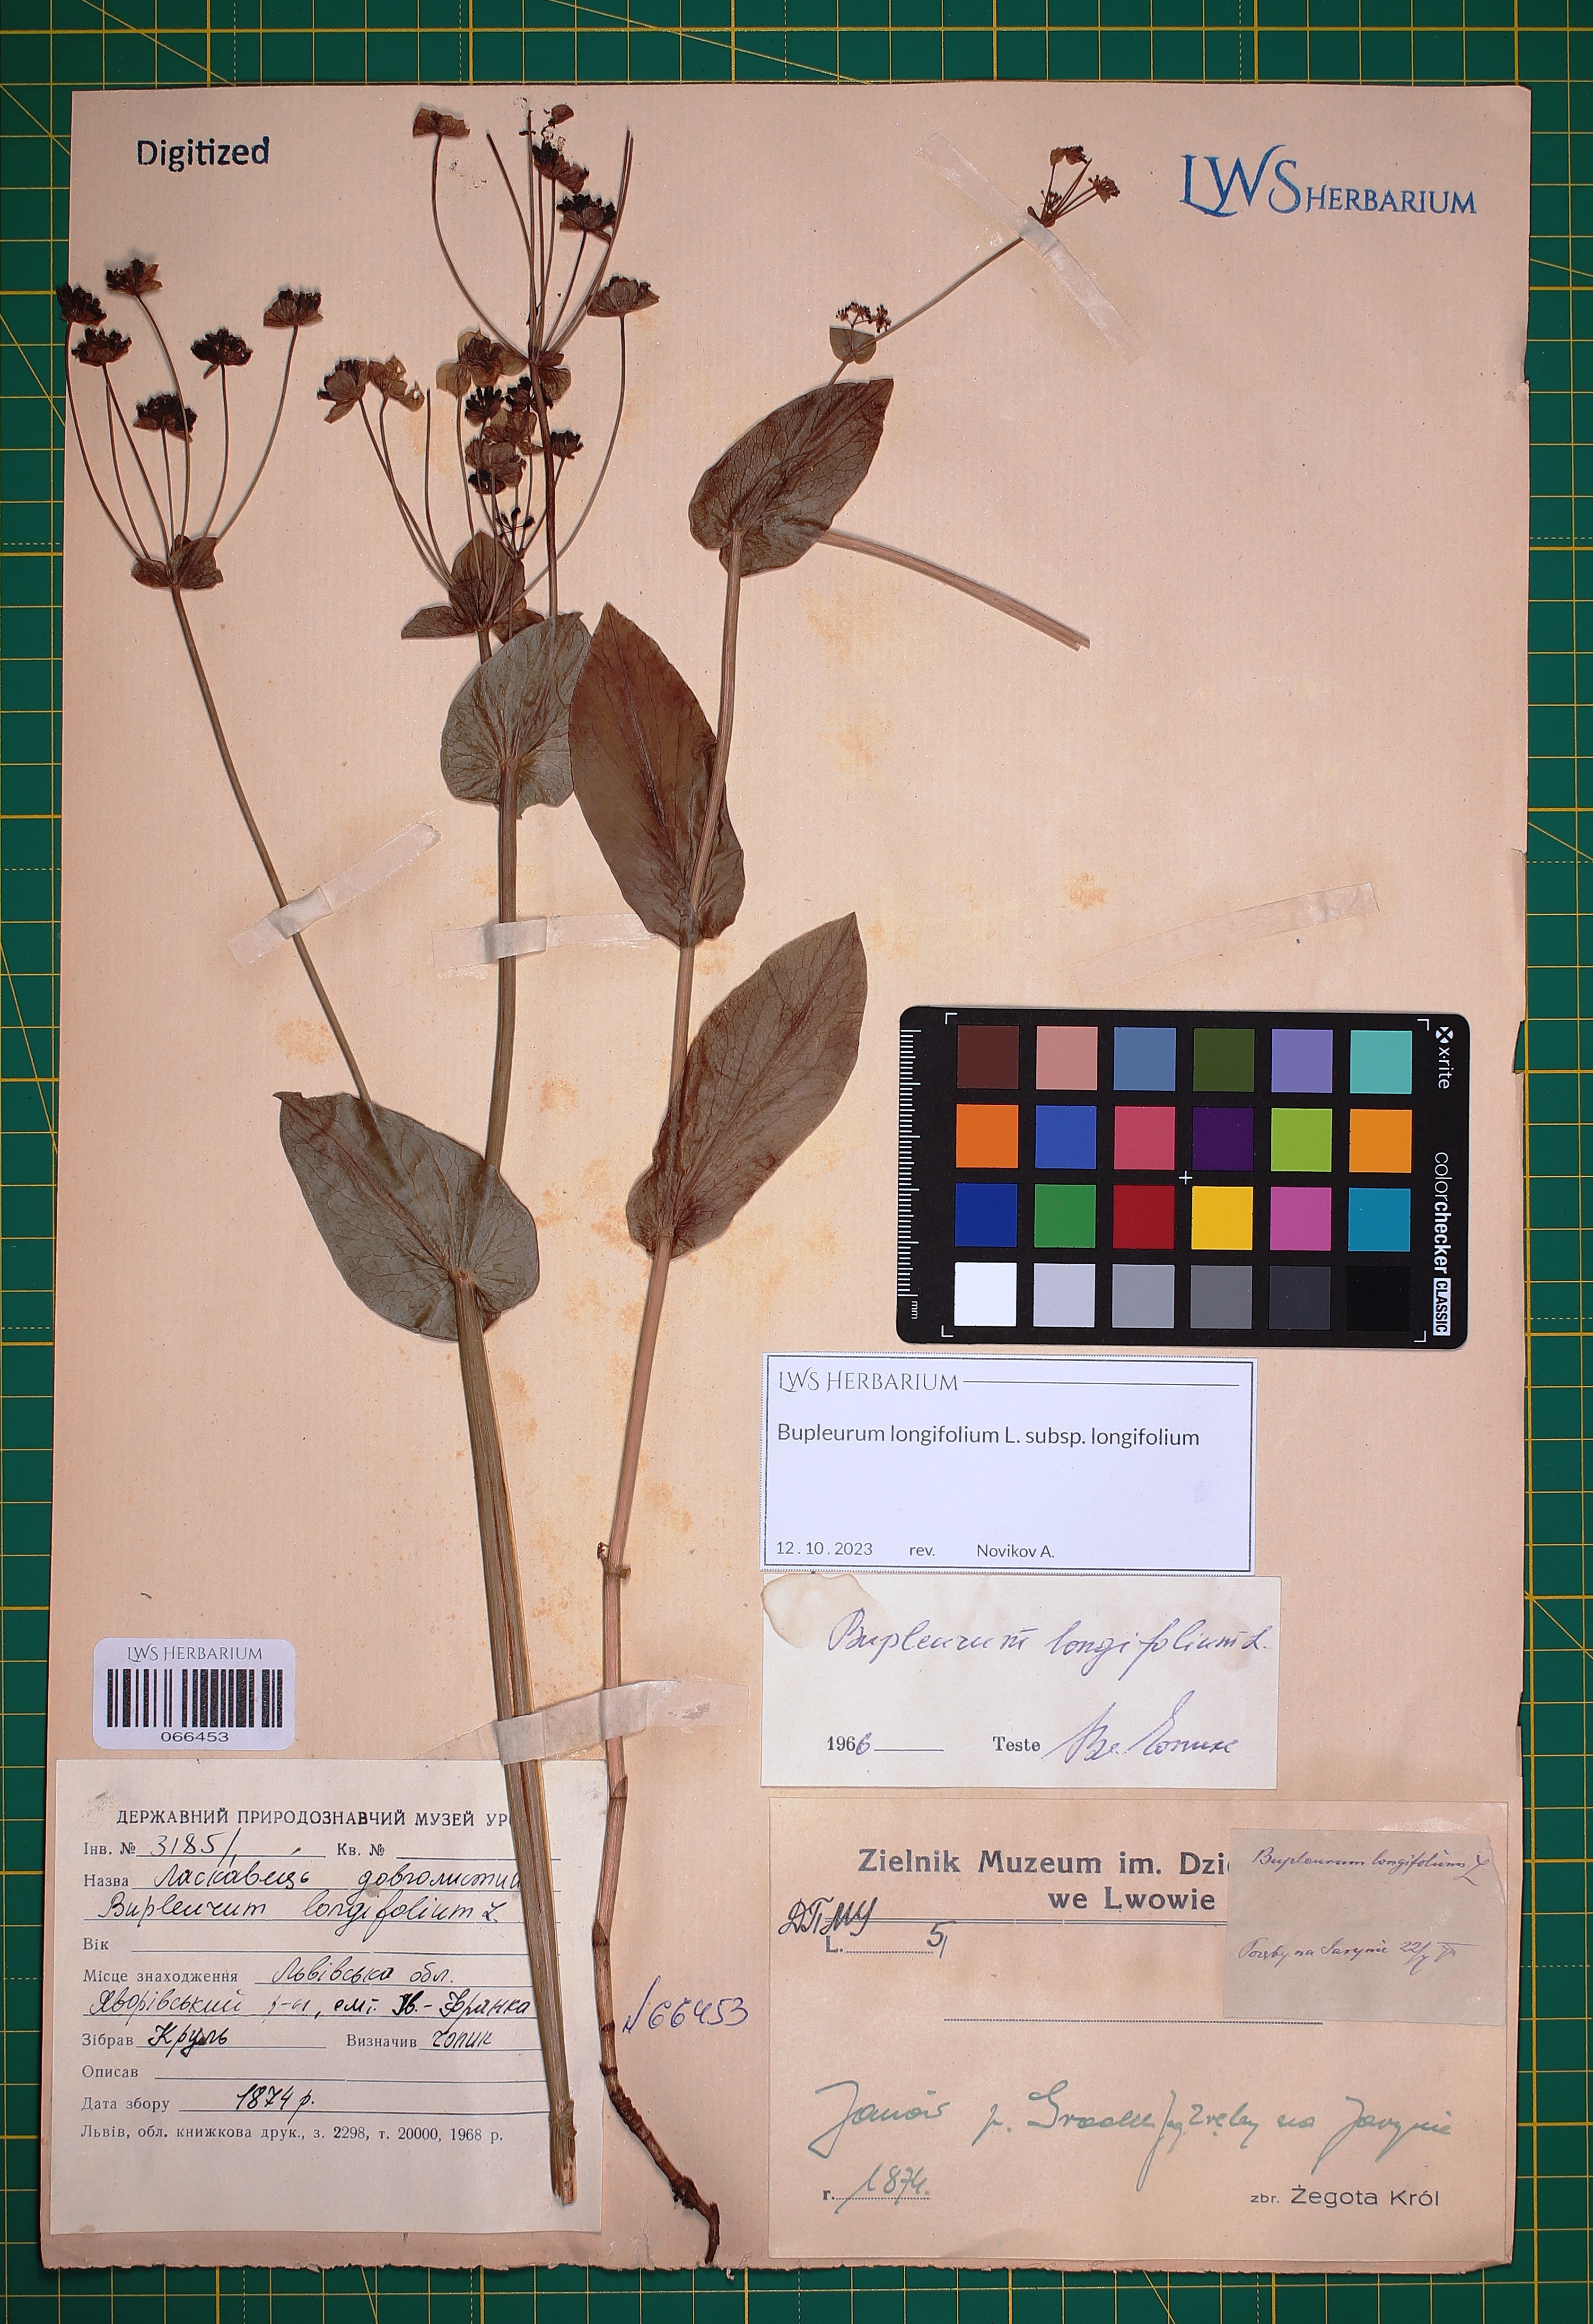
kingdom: Plantae
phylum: Tracheophyta
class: Magnoliopsida
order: Apiales
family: Apiaceae
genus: Bupleurum
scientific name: Bupleurum longifolium
